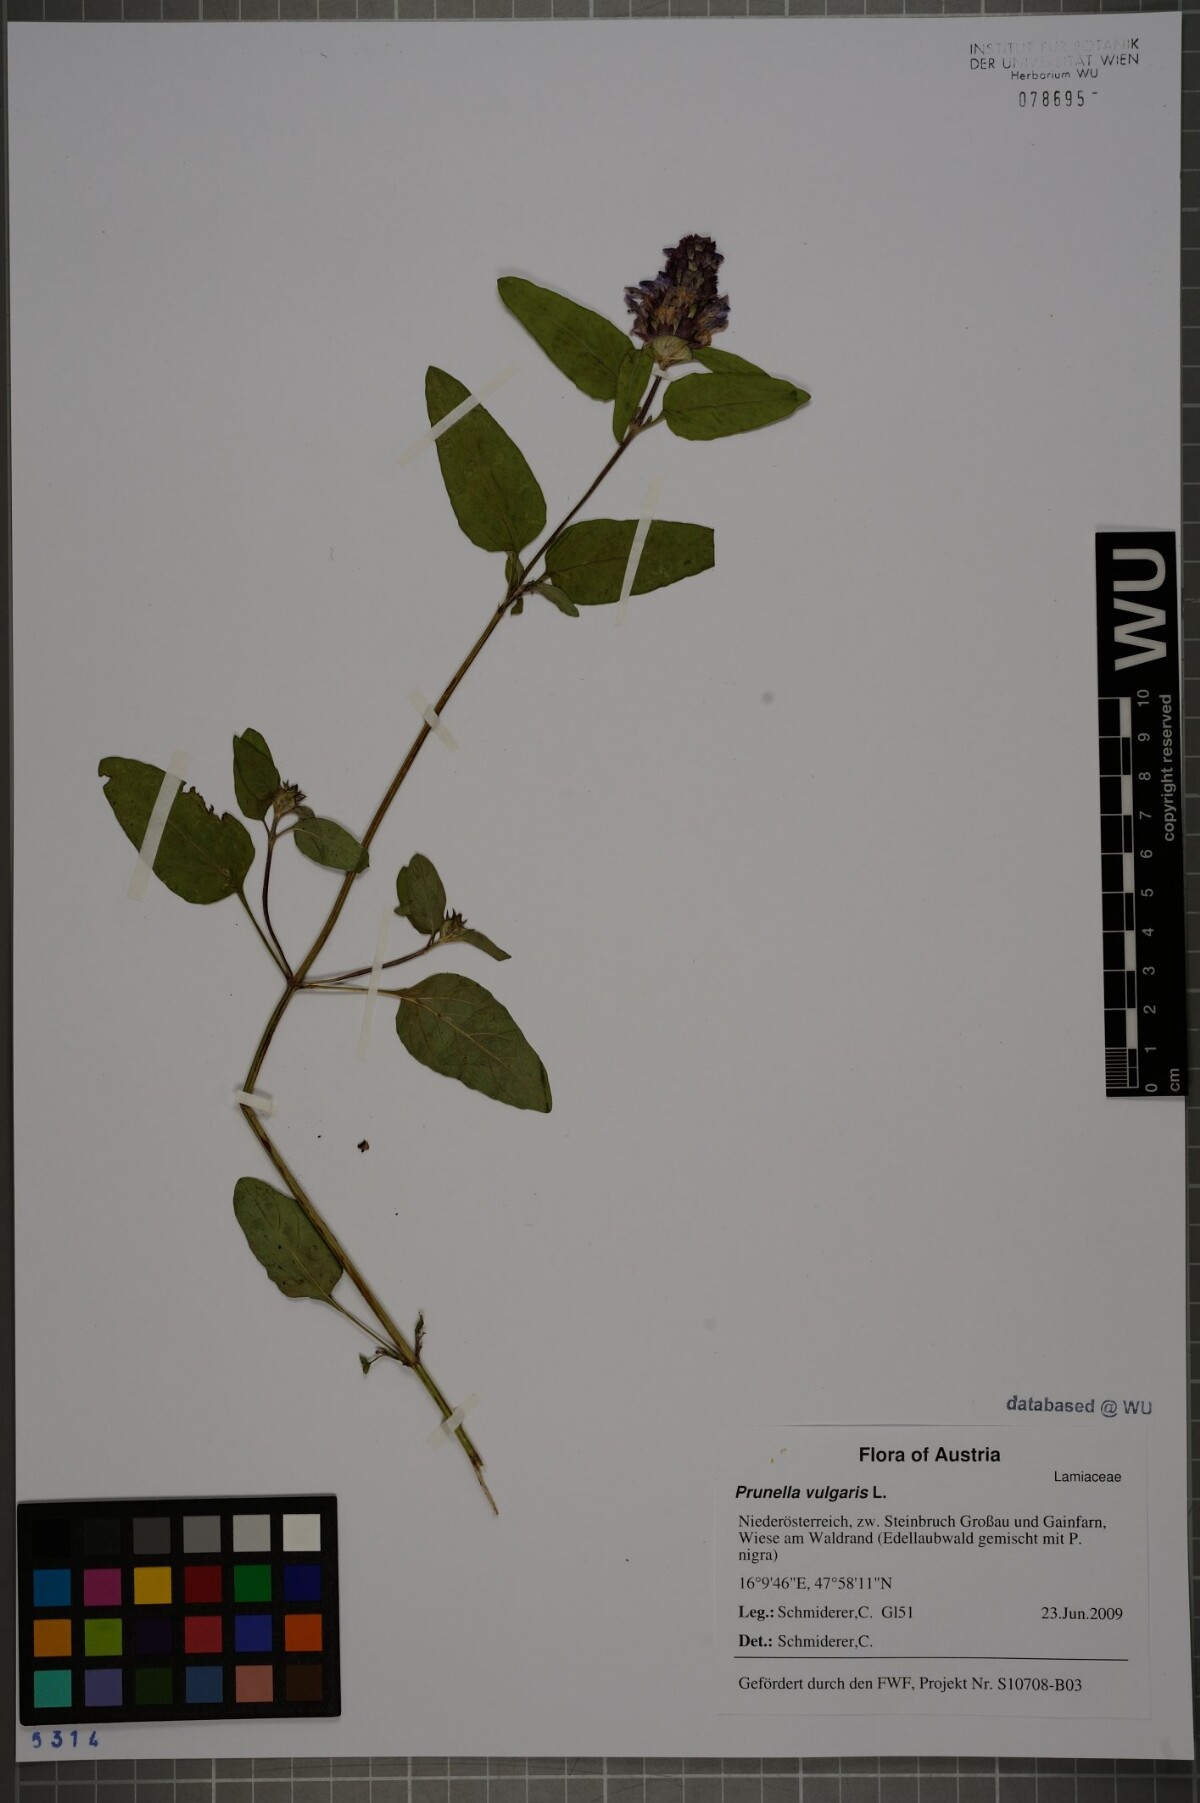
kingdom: Plantae
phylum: Tracheophyta
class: Magnoliopsida
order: Lamiales
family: Lamiaceae
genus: Prunella
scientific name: Prunella vulgaris
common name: Heal-all
